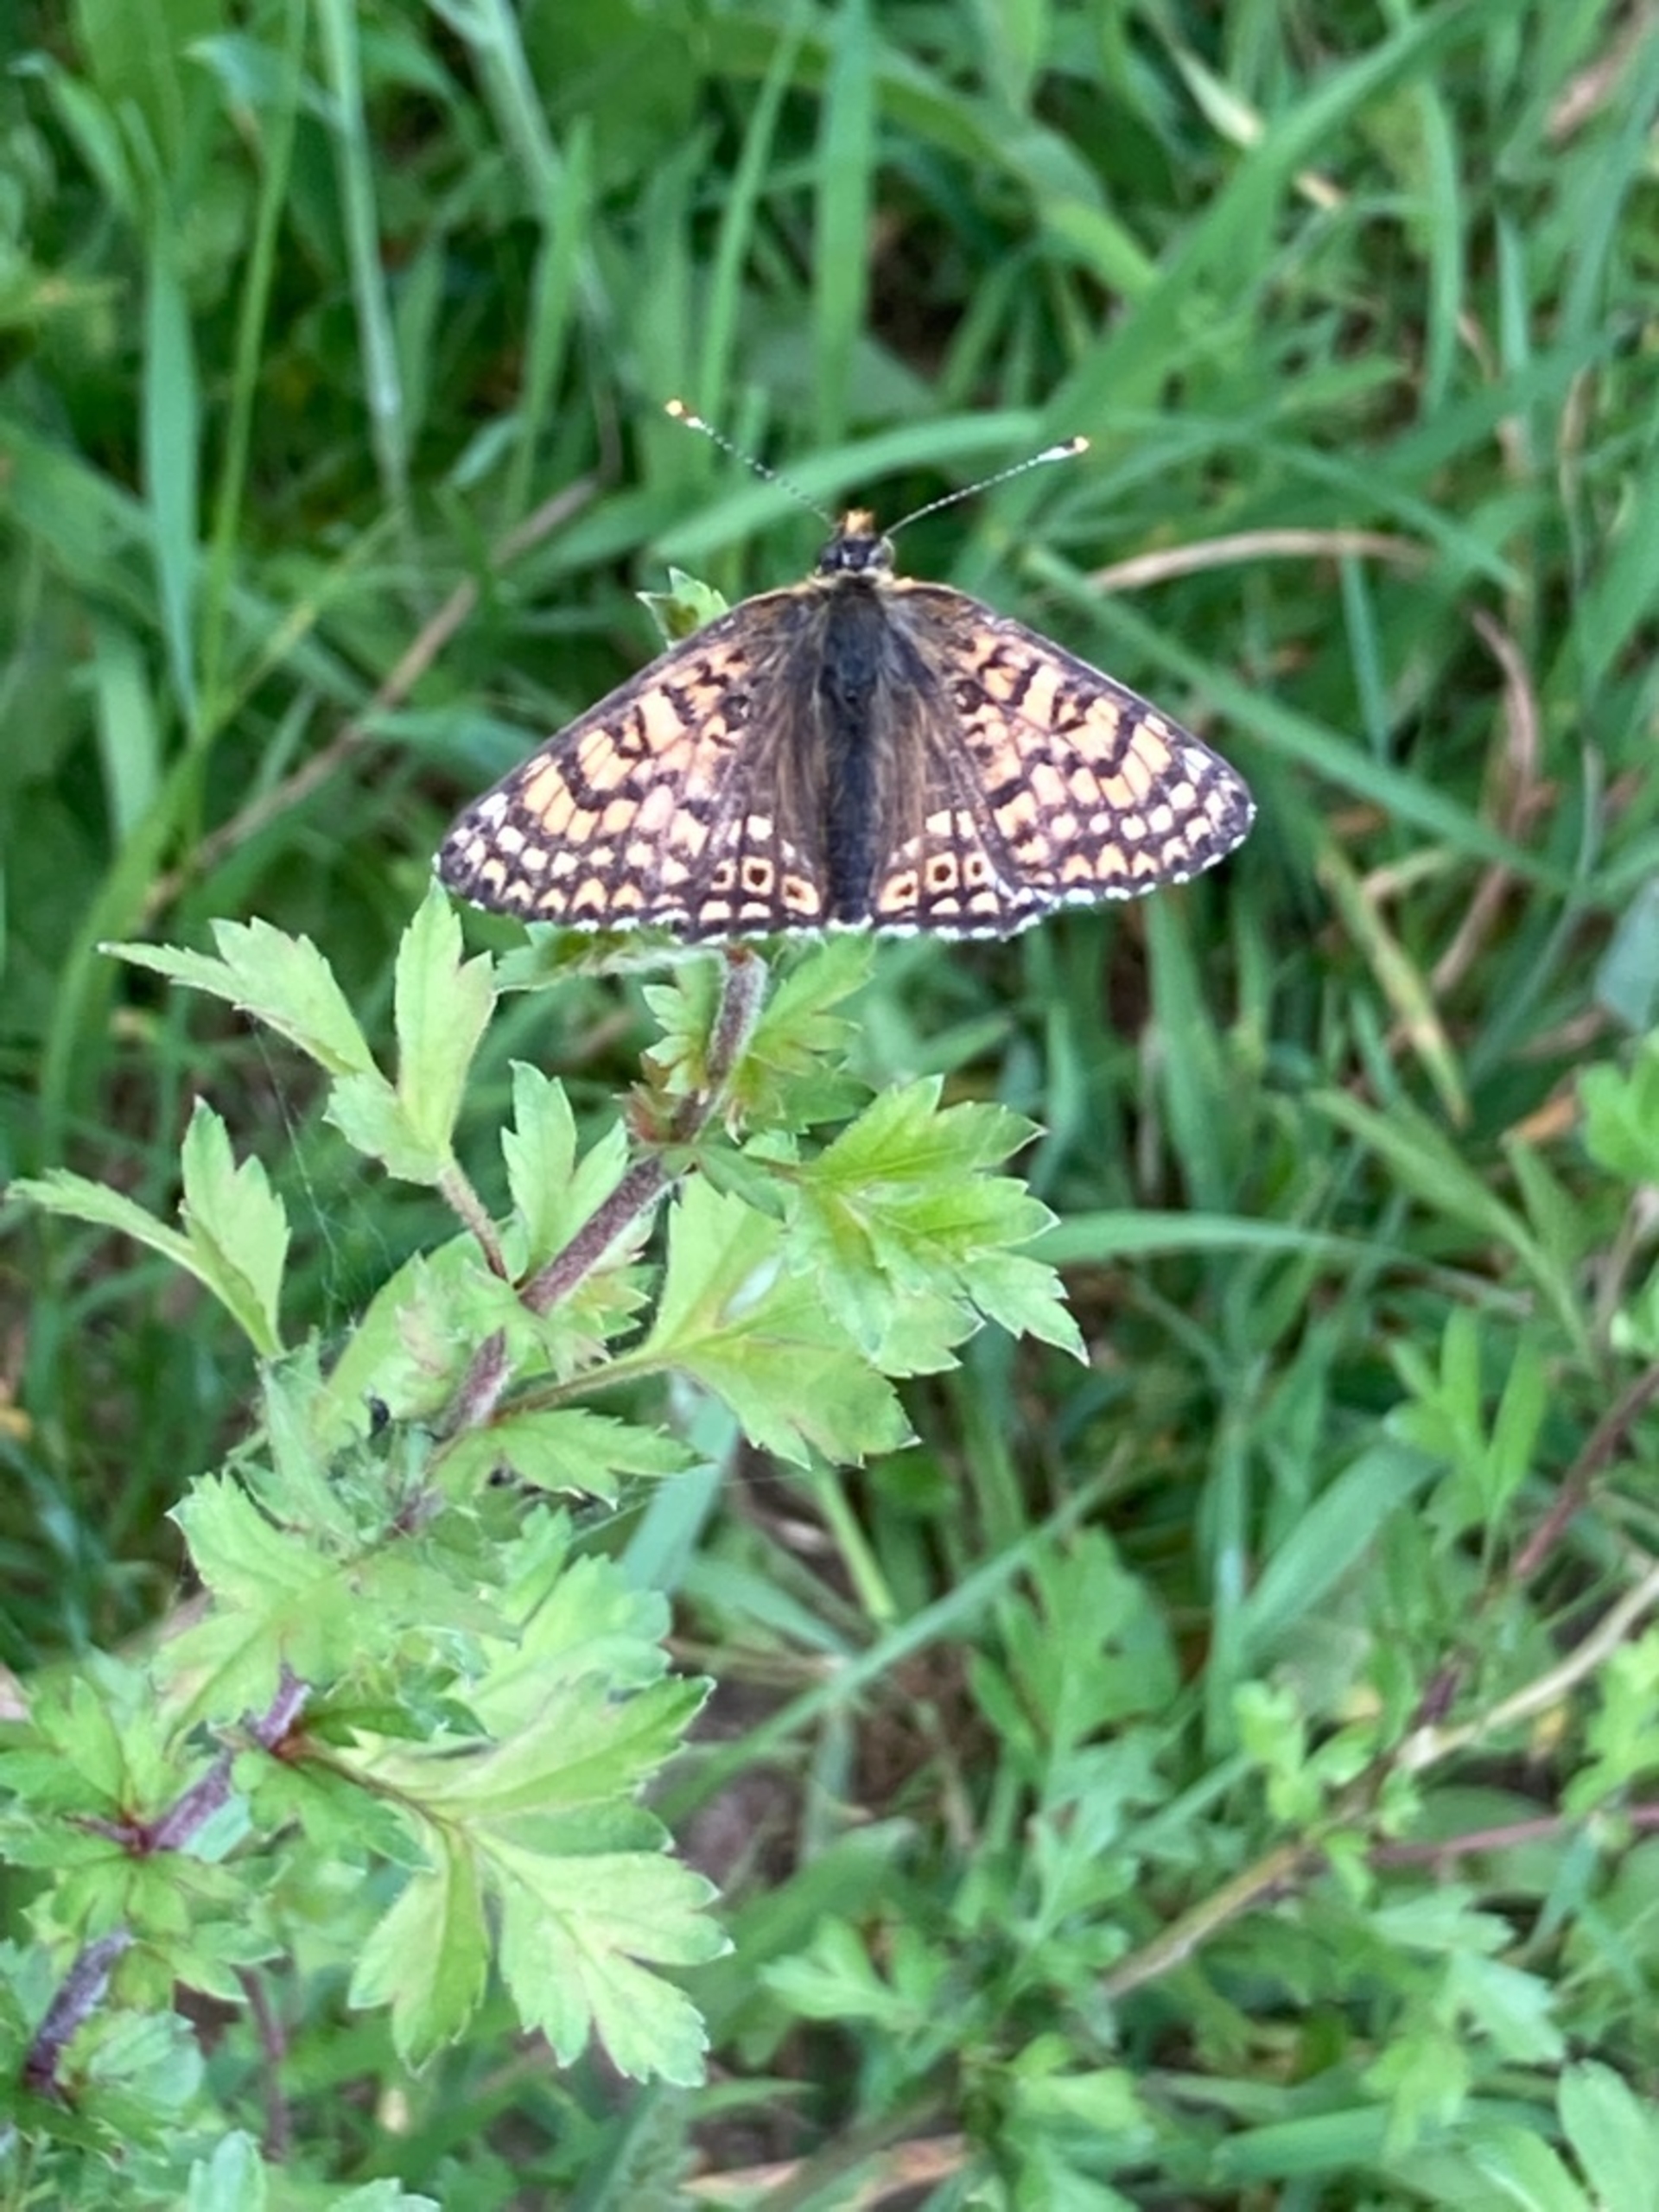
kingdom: Animalia
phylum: Arthropoda
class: Insecta
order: Lepidoptera
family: Nymphalidae
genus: Melitaea
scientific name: Melitaea cinxia
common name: Okkergul pletvinge
